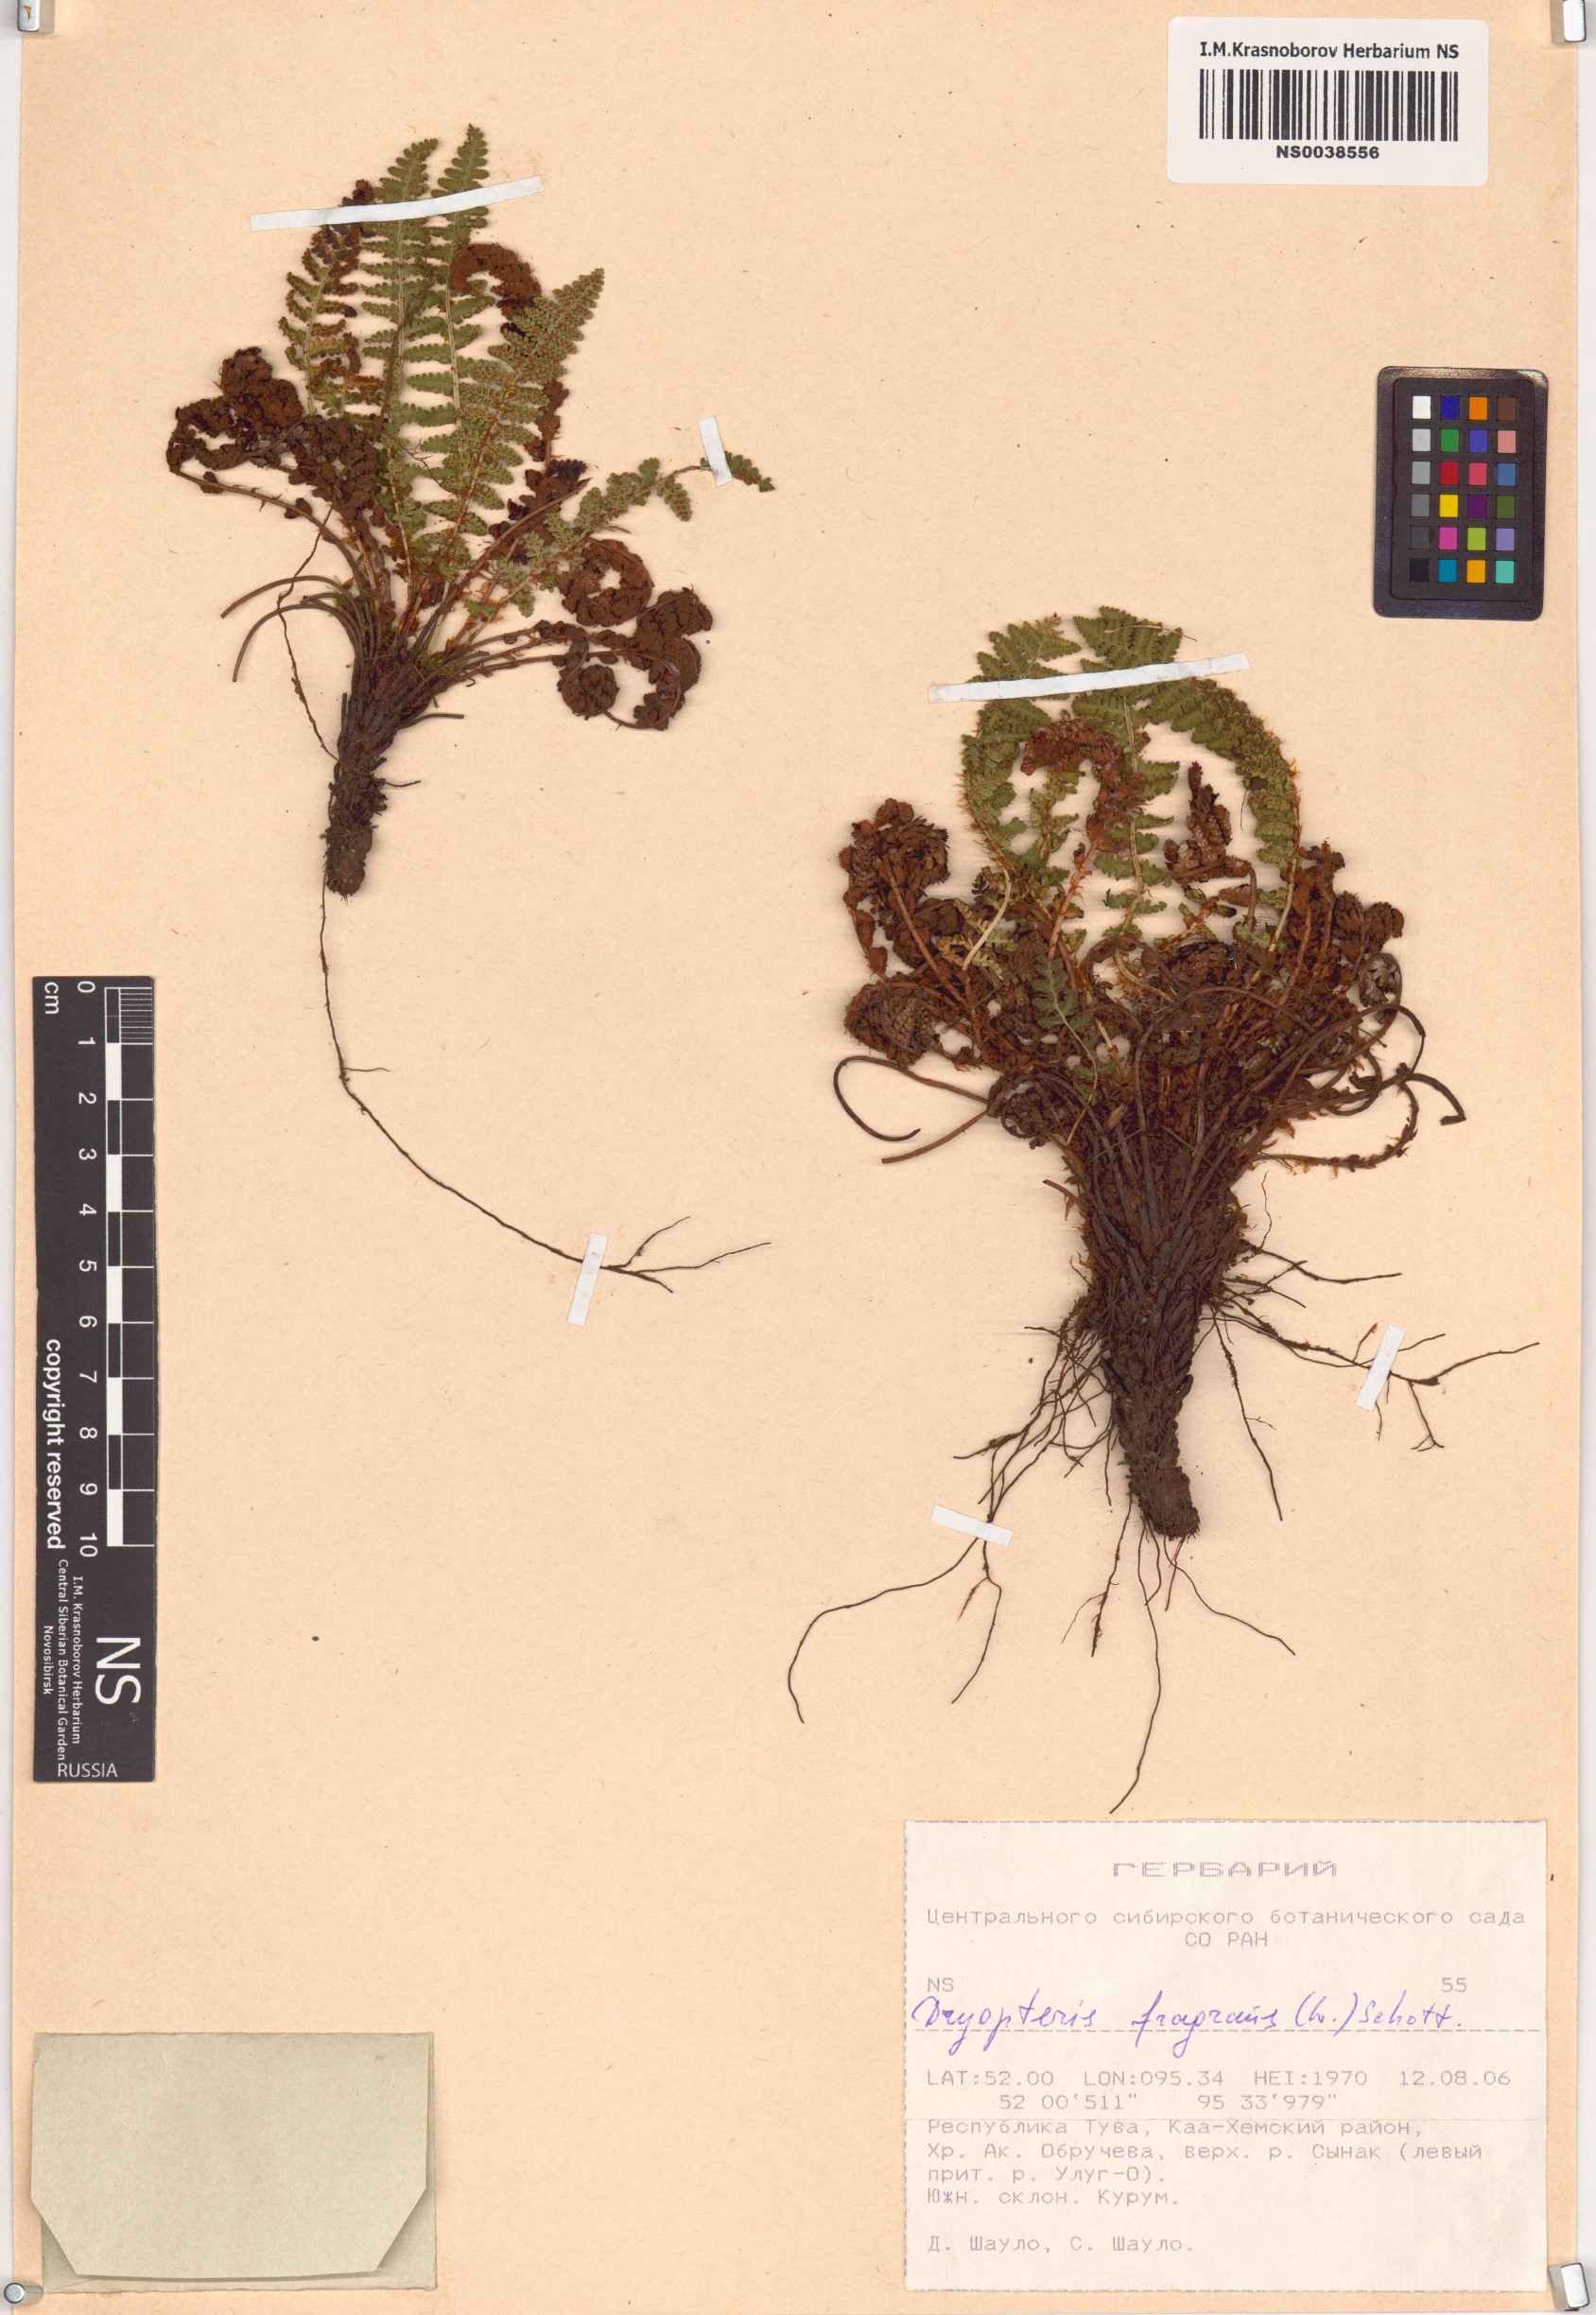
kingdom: Plantae
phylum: Tracheophyta
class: Polypodiopsida
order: Polypodiales
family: Dryopteridaceae
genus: Dryopteris
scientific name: Dryopteris fragrans
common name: Fragrant wood fern
